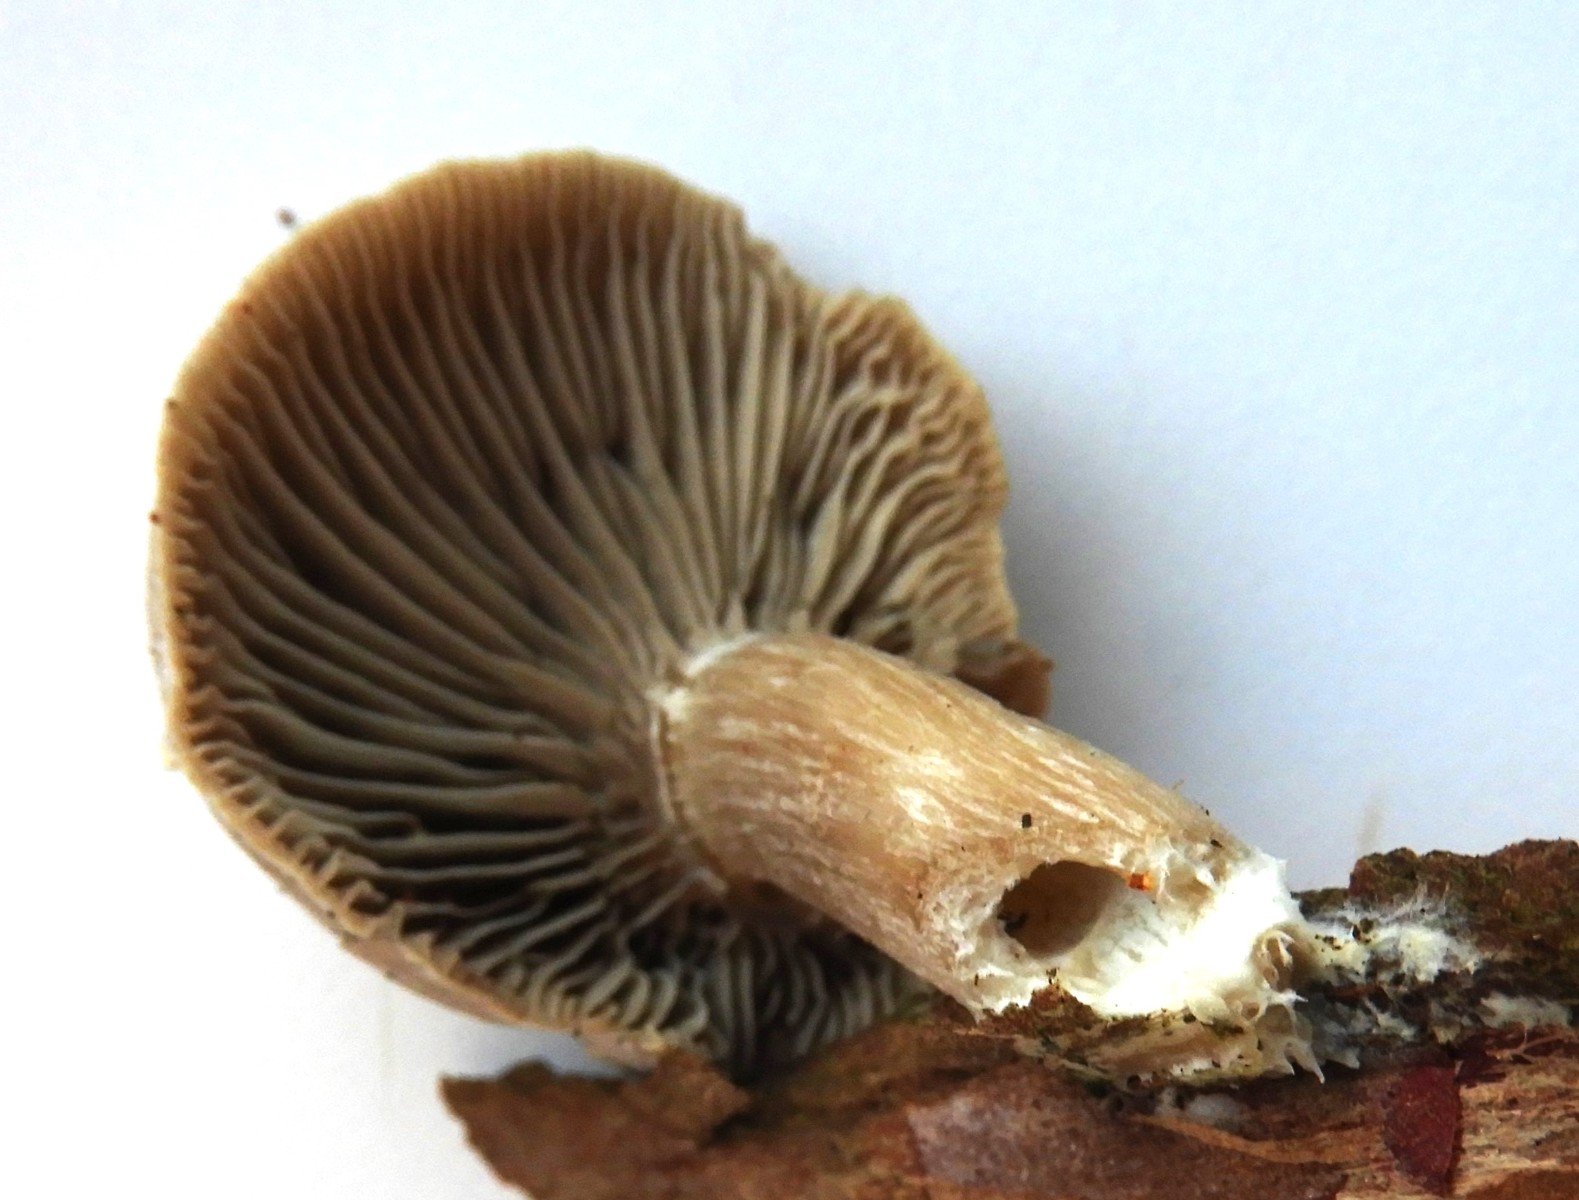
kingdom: Fungi
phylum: Basidiomycota
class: Agaricomycetes
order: Agaricales
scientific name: Agaricales
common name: champignonordenen
